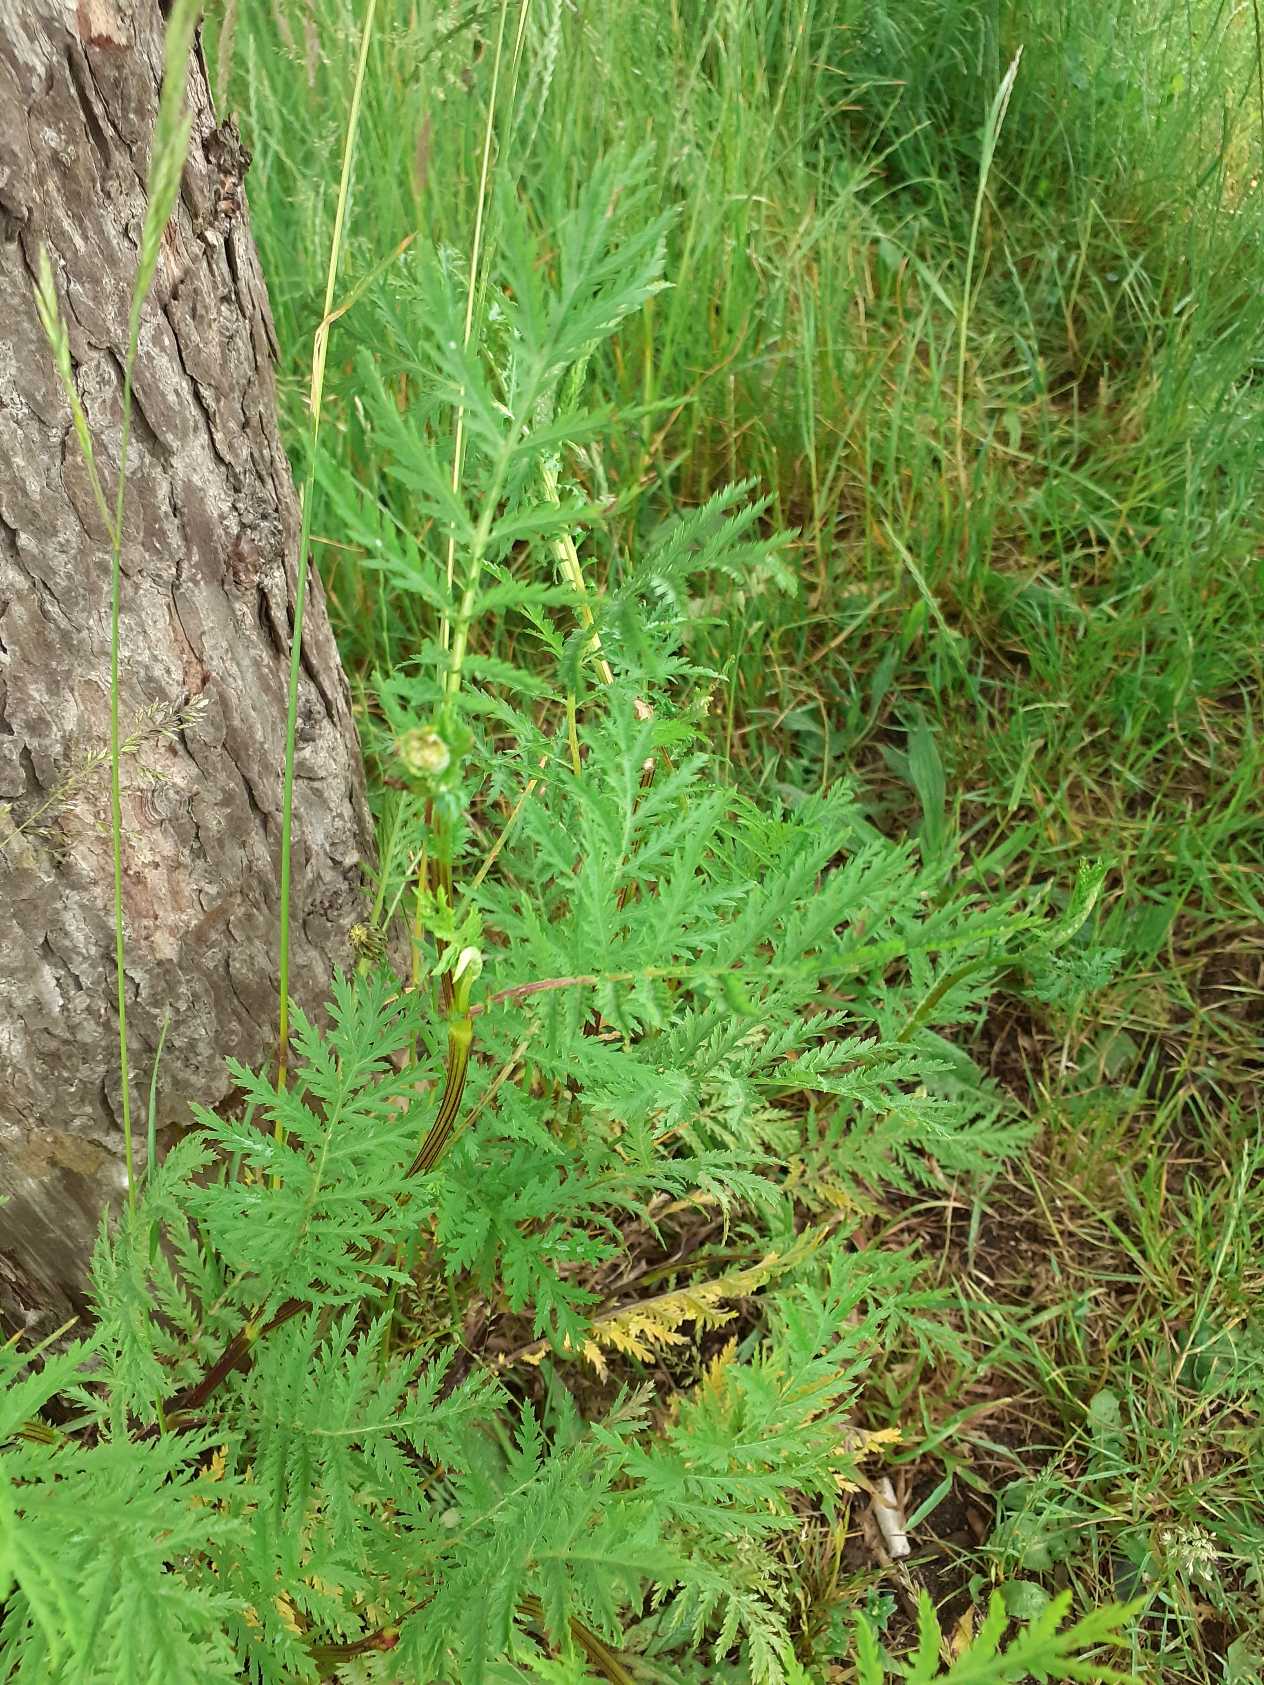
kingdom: Plantae
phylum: Tracheophyta
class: Magnoliopsida
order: Asterales
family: Asteraceae
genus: Tanacetum
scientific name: Tanacetum vulgare
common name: Rejnfan
